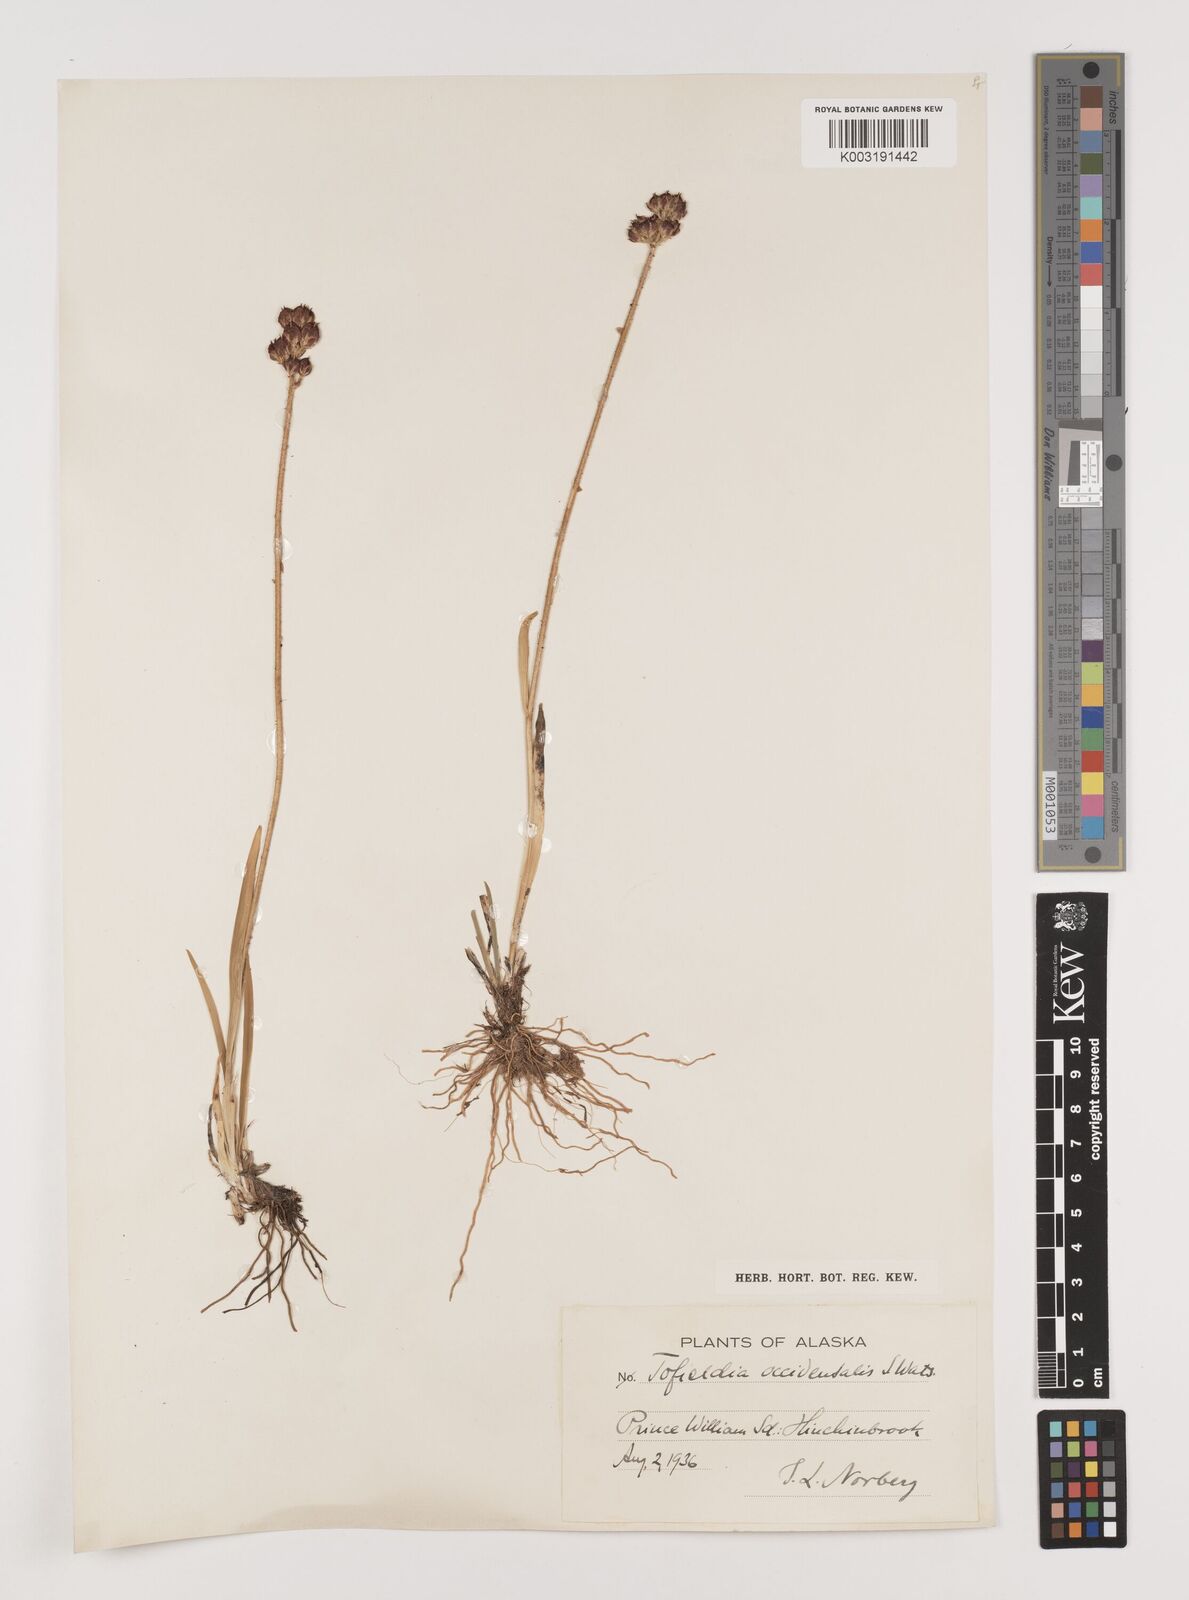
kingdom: Plantae
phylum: Tracheophyta
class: Liliopsida
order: Alismatales
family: Tofieldiaceae
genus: Triantha
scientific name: Triantha occidentalis
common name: Western false asphodel
